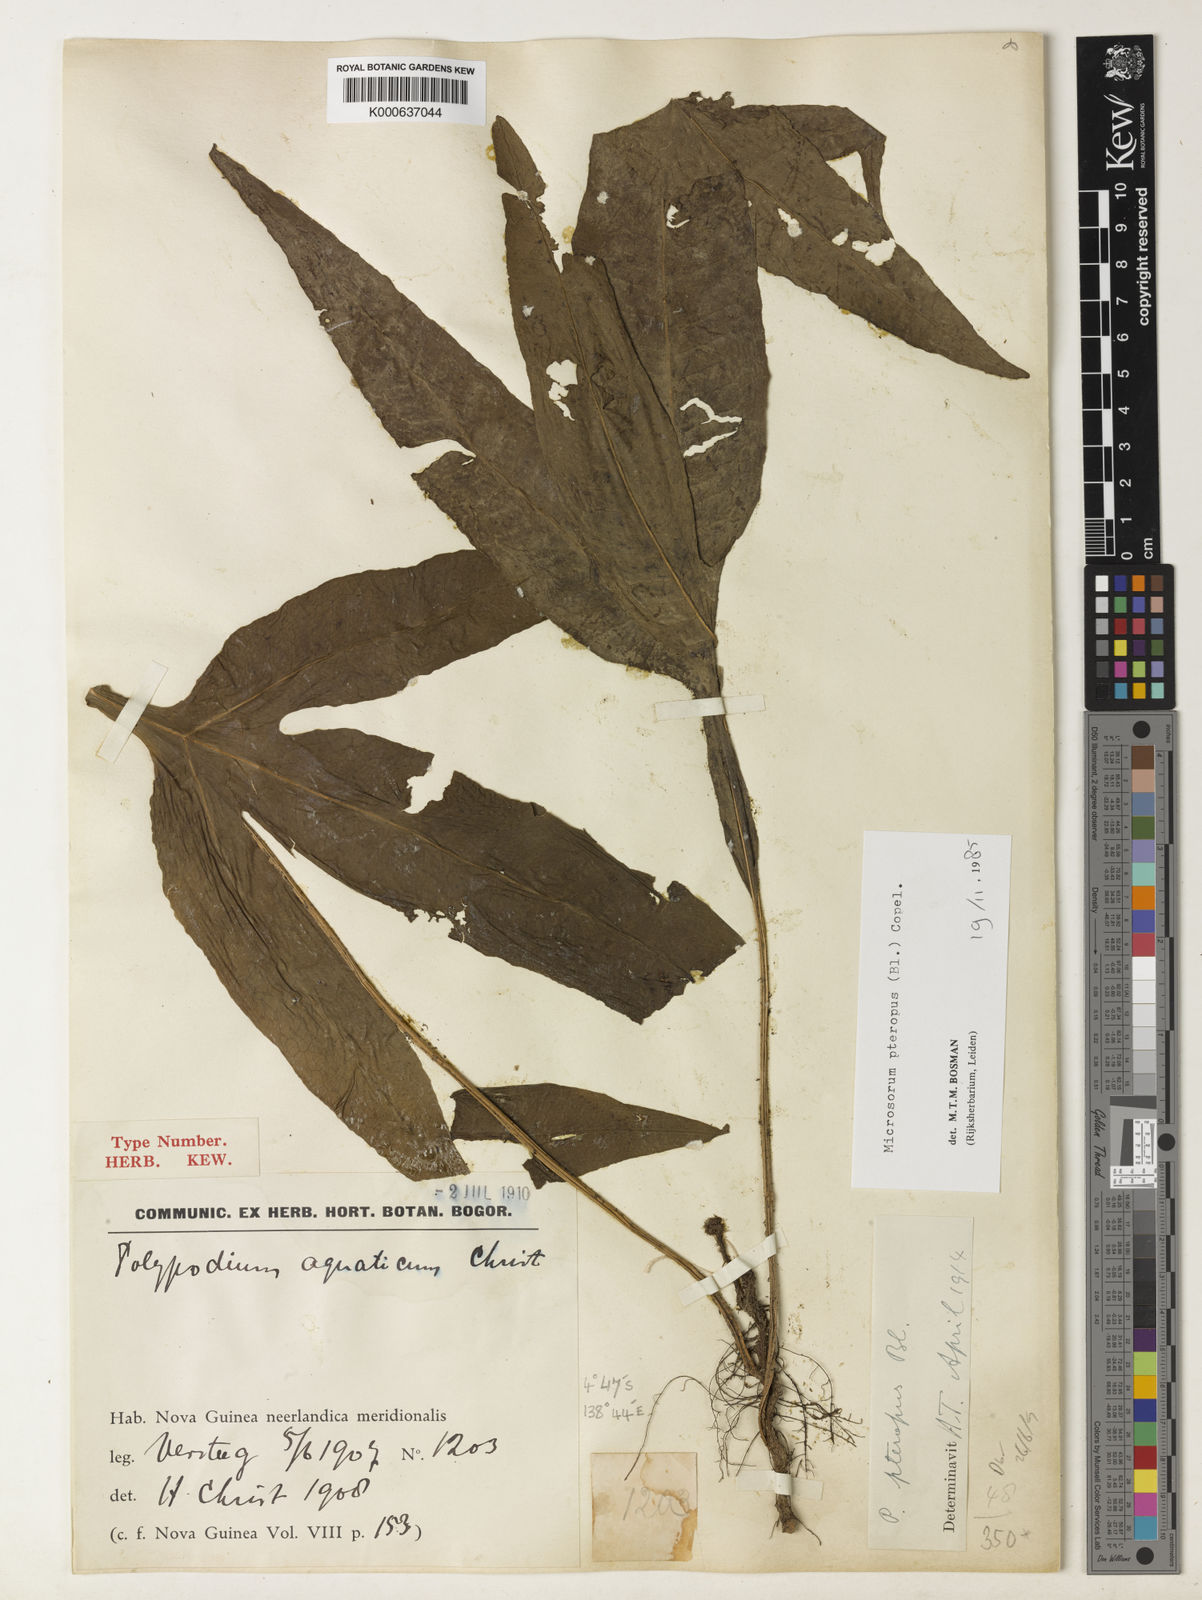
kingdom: Plantae
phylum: Tracheophyta
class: Polypodiopsida
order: Polypodiales
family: Polypodiaceae
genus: Leptochilus
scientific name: Leptochilus pteropus
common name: Java fern
